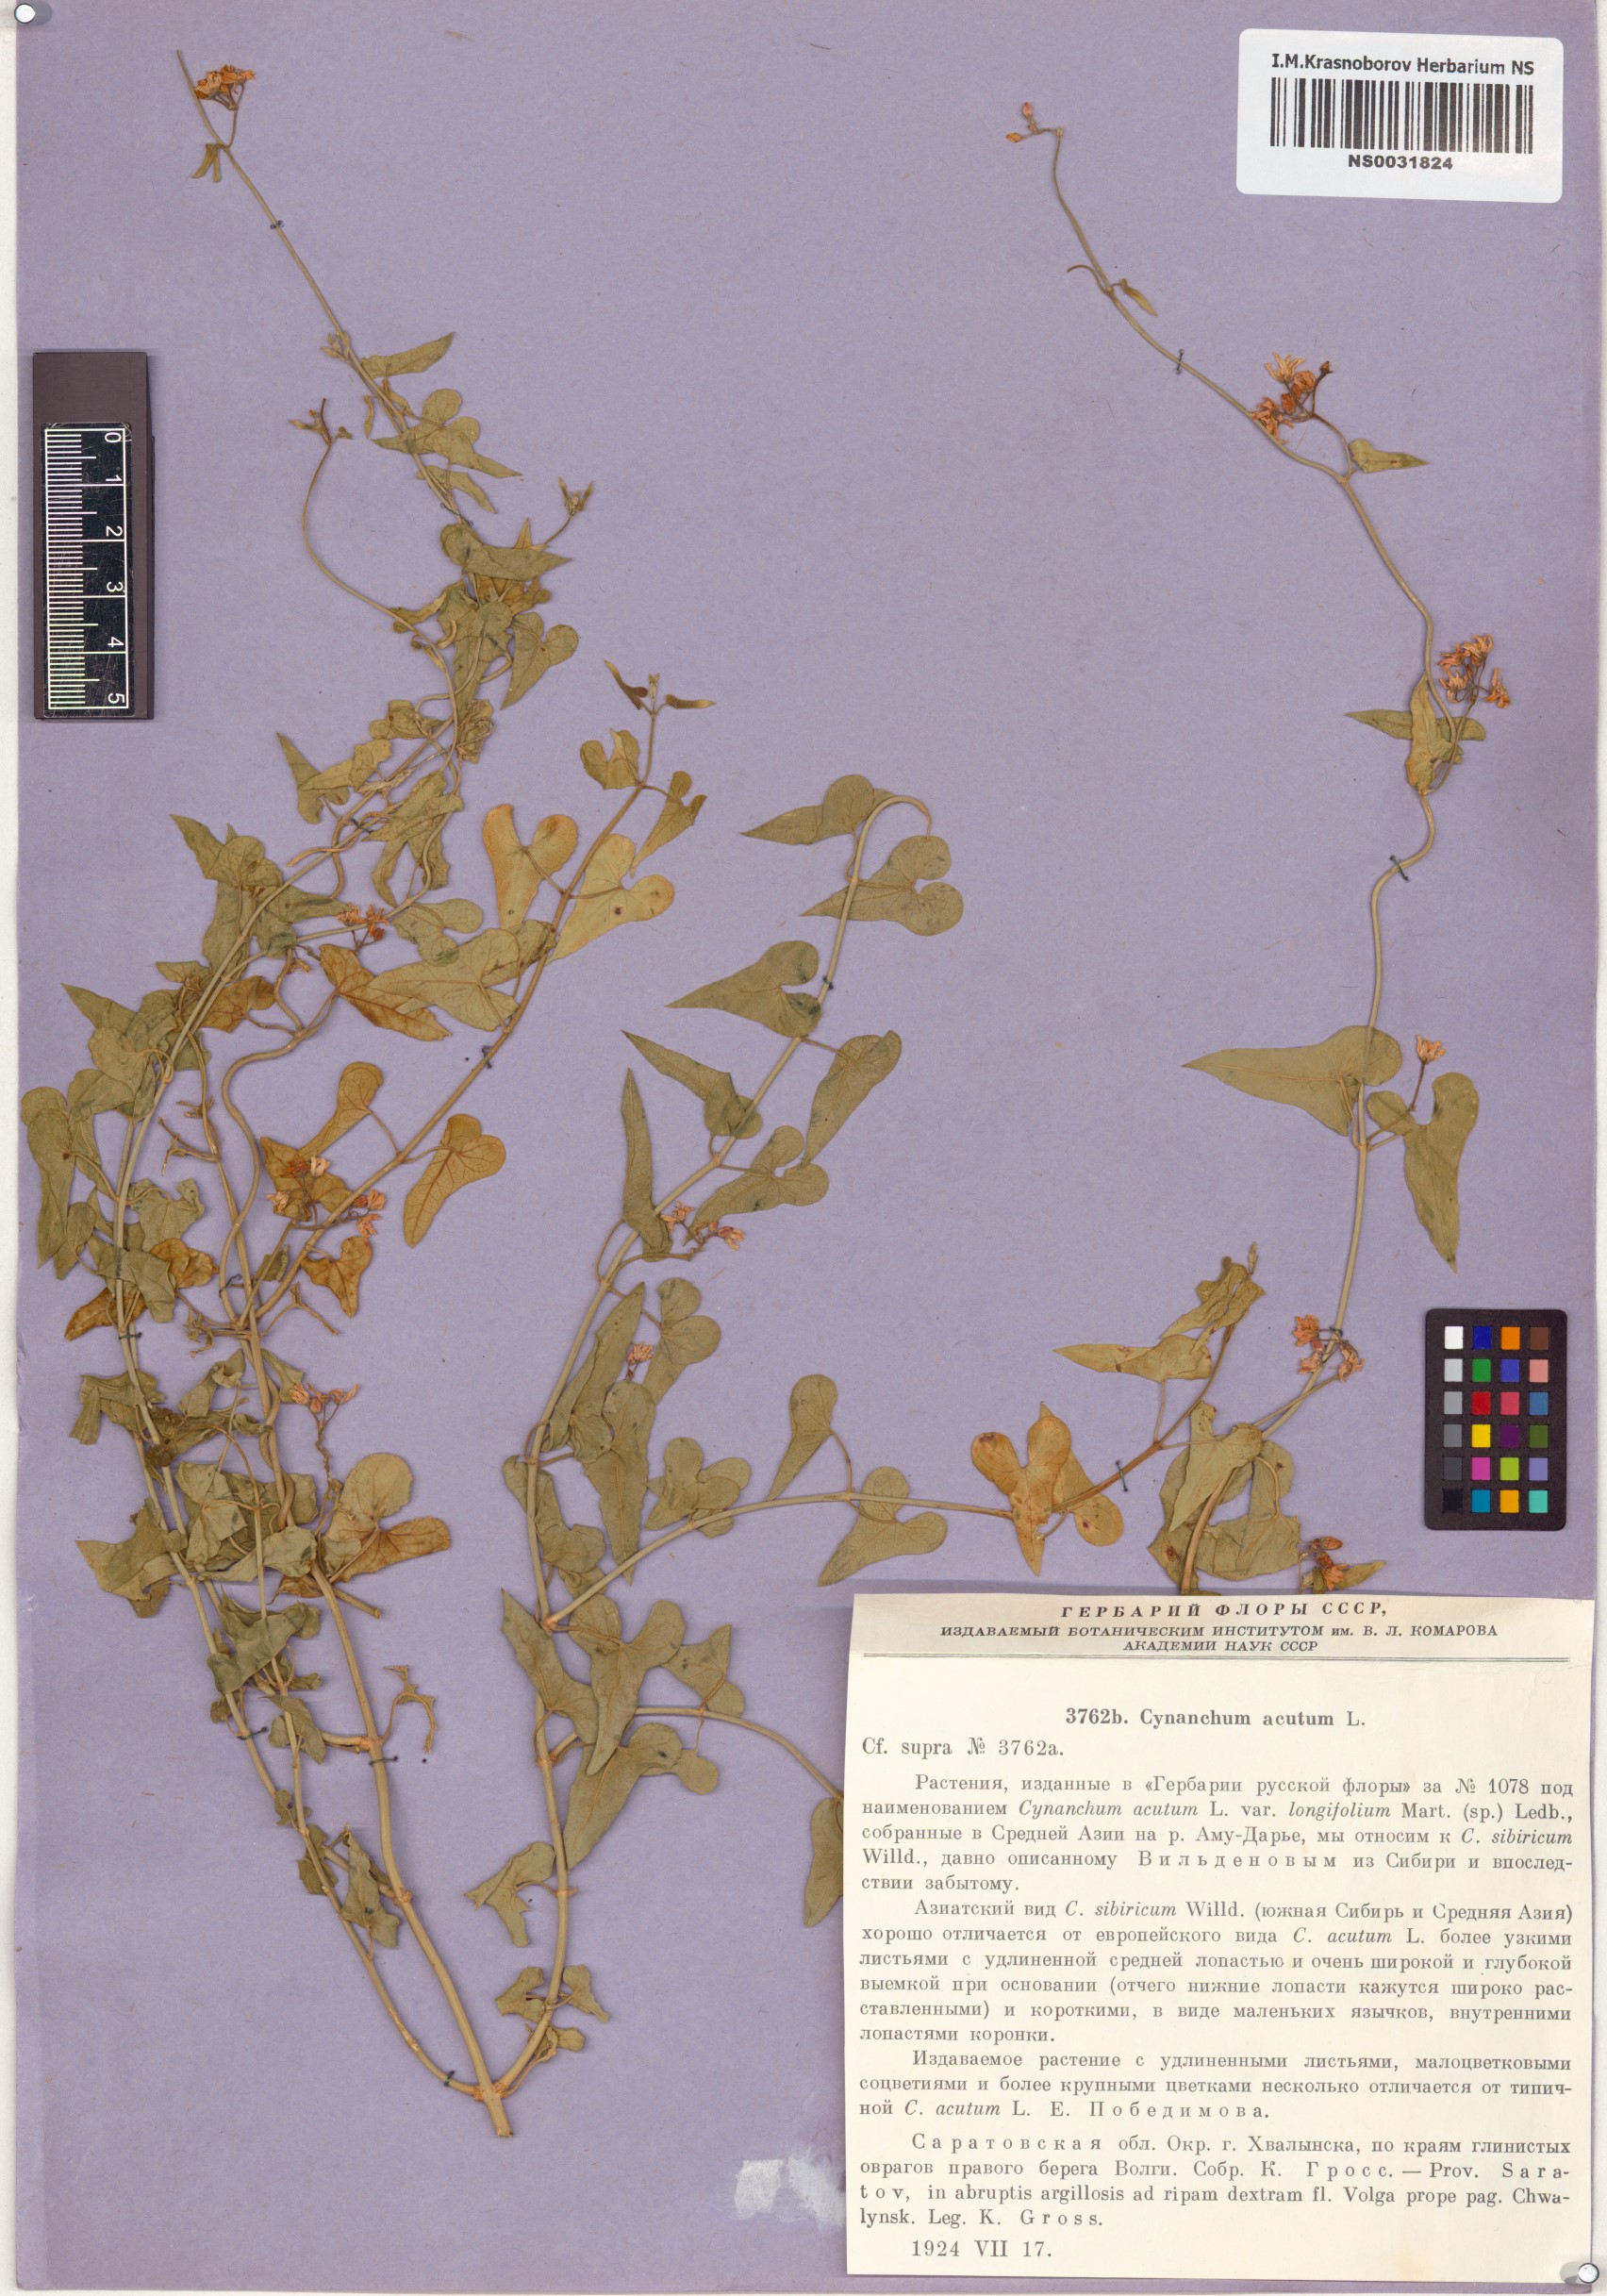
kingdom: Plantae
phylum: Tracheophyta
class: Magnoliopsida
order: Gentianales
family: Apocynaceae
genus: Cynanchum
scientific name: Cynanchum acutum
